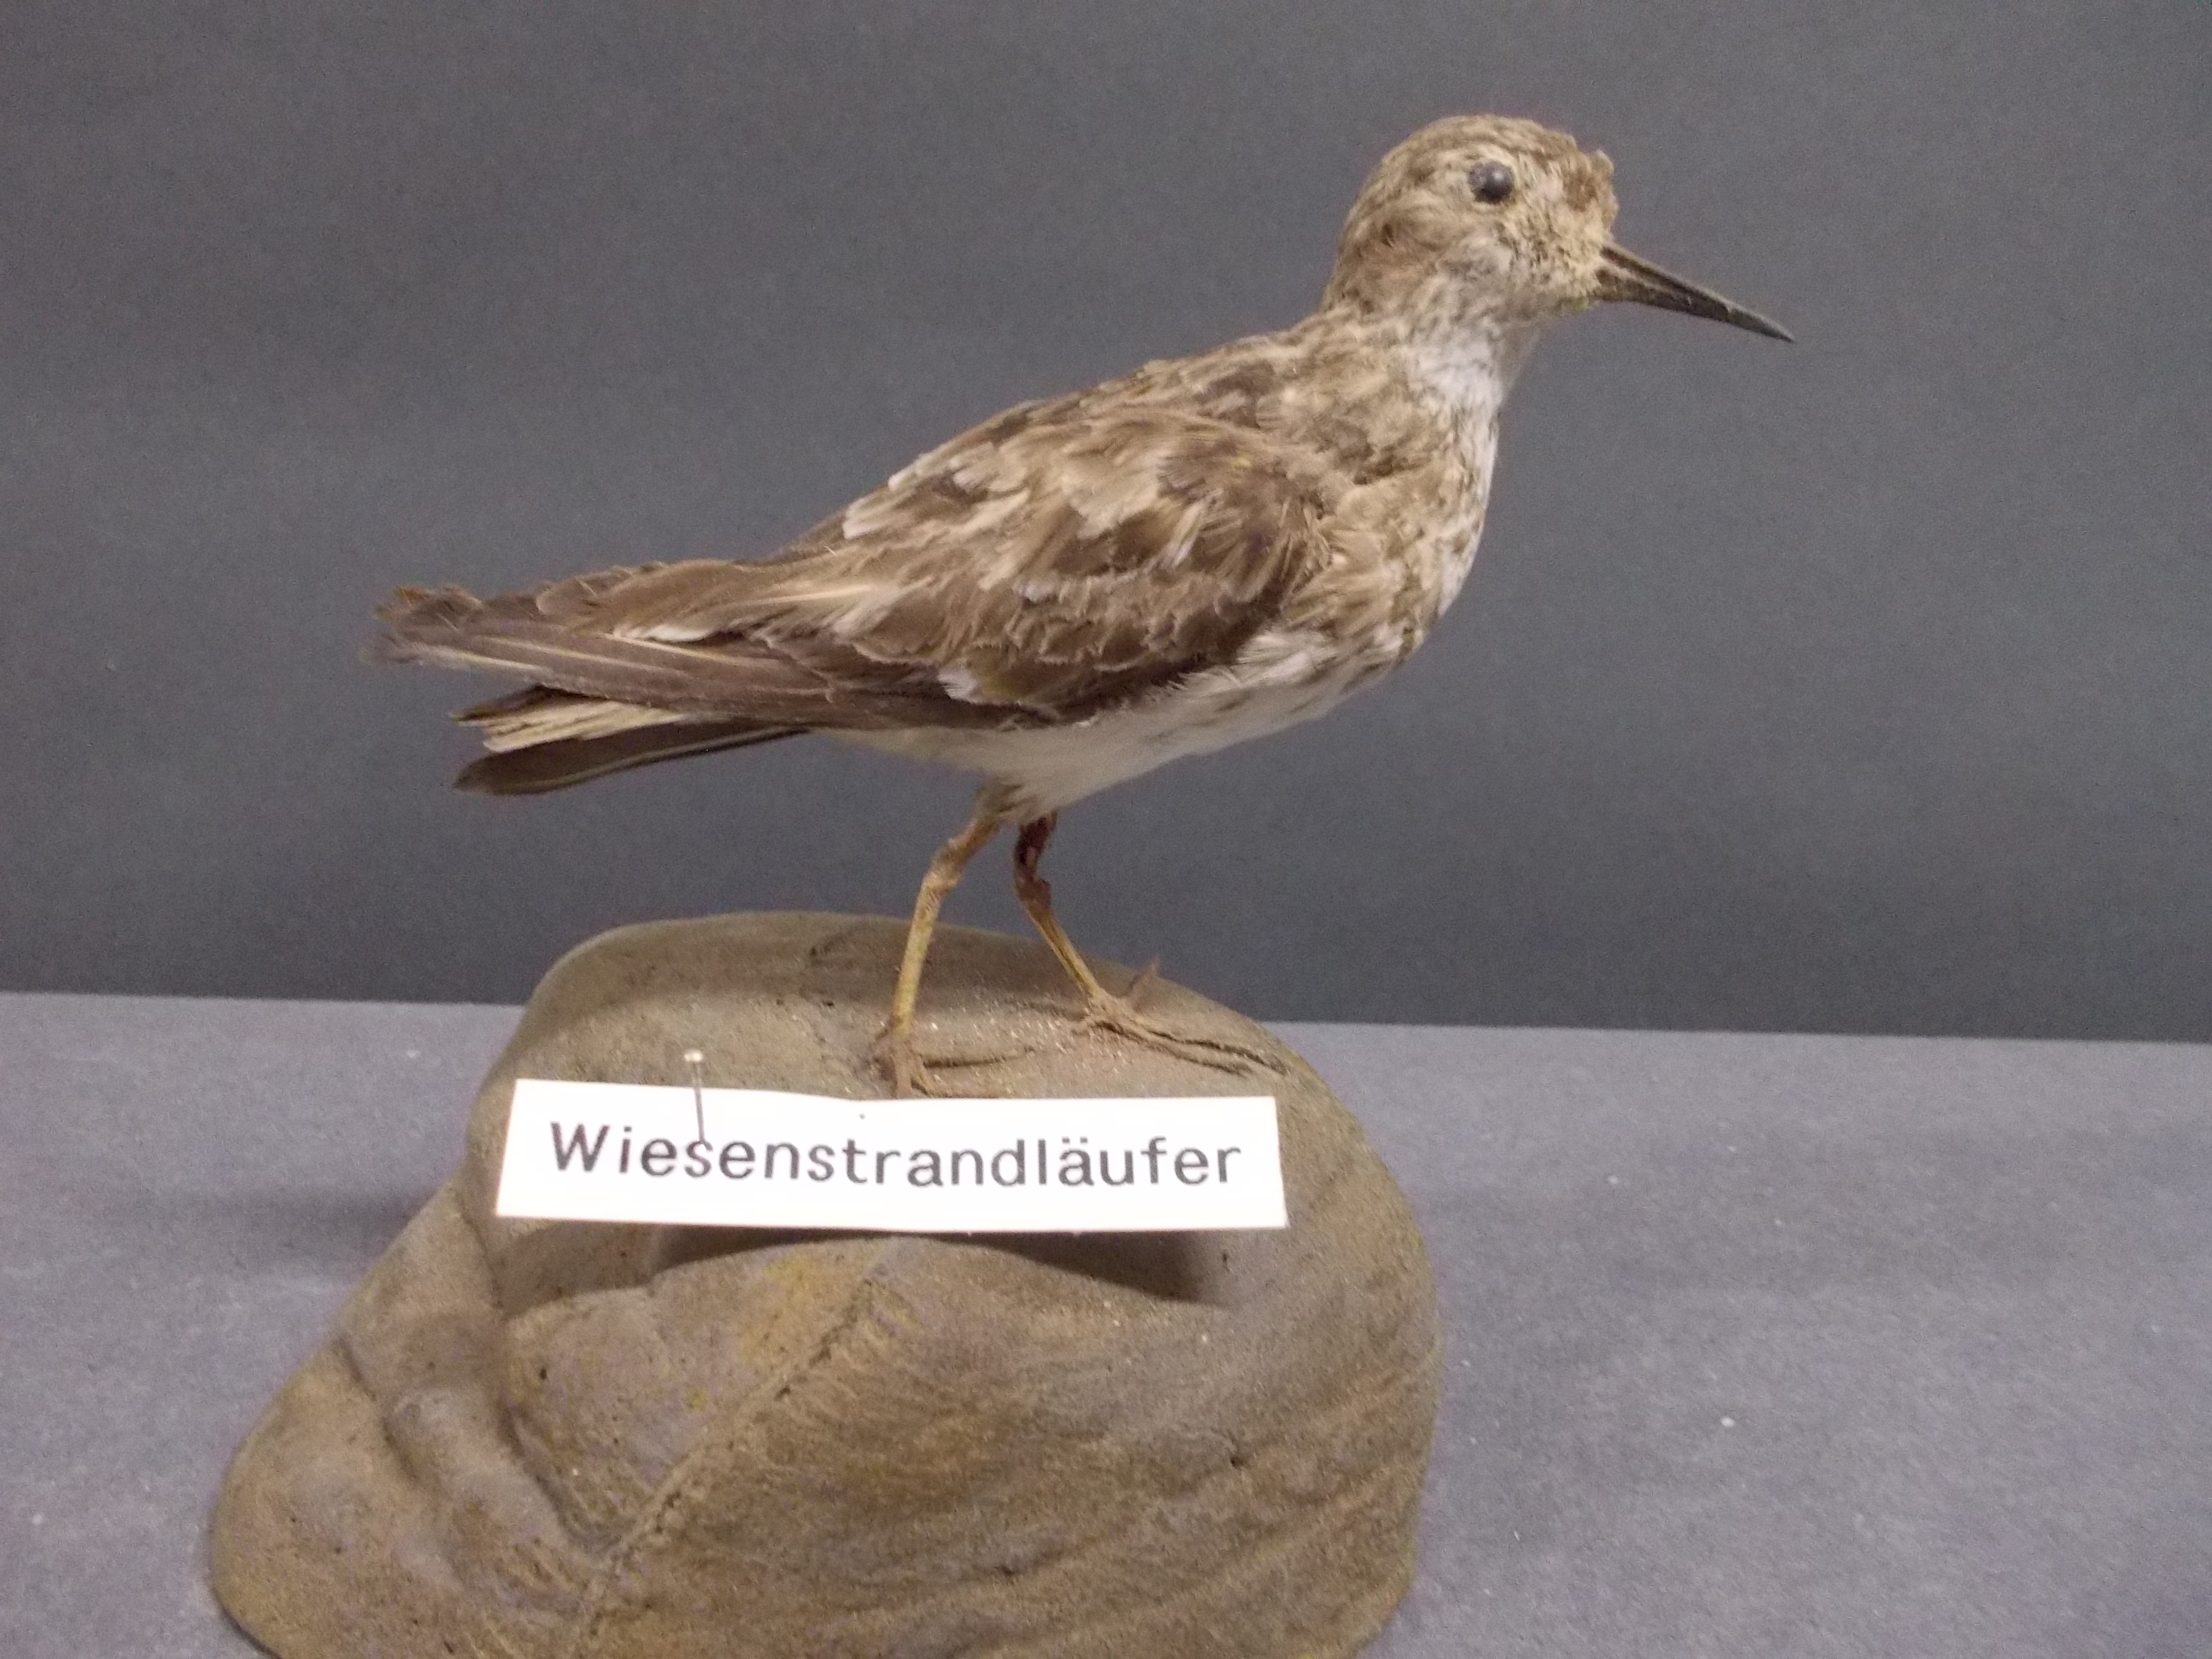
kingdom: Animalia
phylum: Chordata
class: Aves
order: Charadriiformes
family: Scolopacidae
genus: Calidris
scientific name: Calidris minutilla
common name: Least sandpiper
